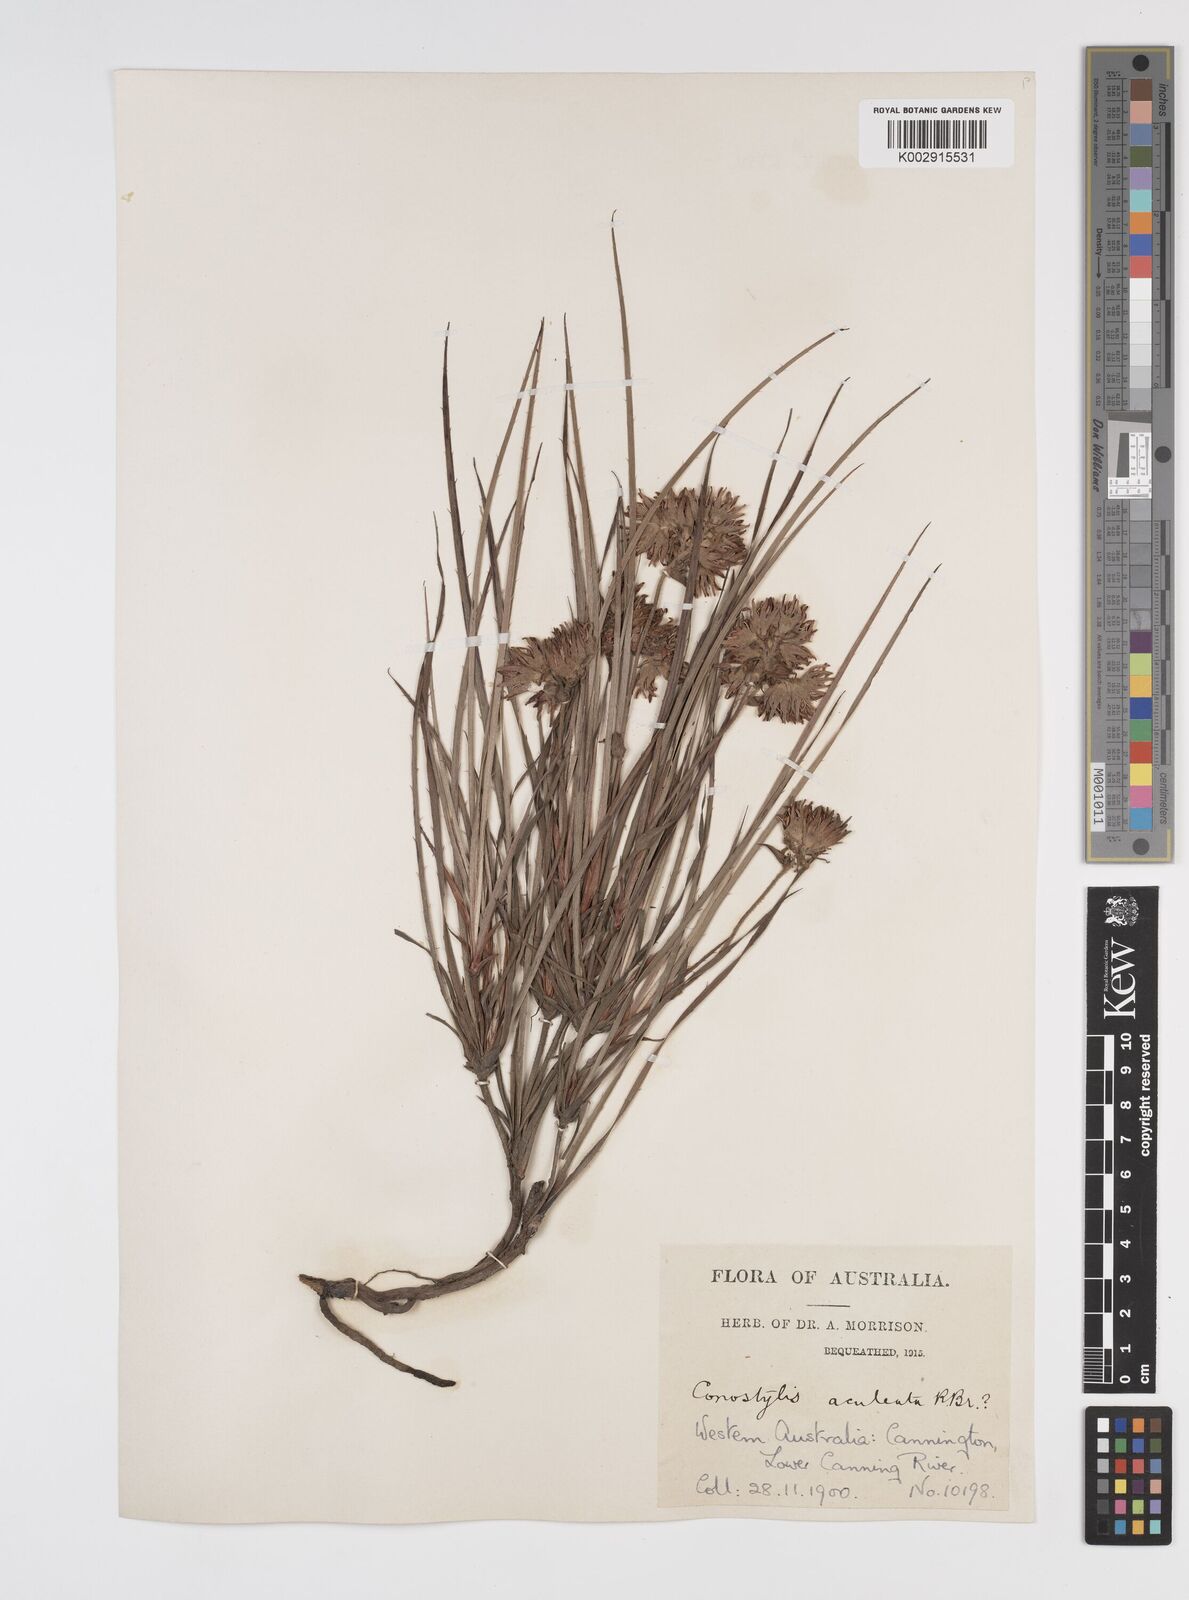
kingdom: Plantae
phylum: Tracheophyta
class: Liliopsida
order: Commelinales
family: Haemodoraceae
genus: Conostylis
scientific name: Conostylis aculeata
